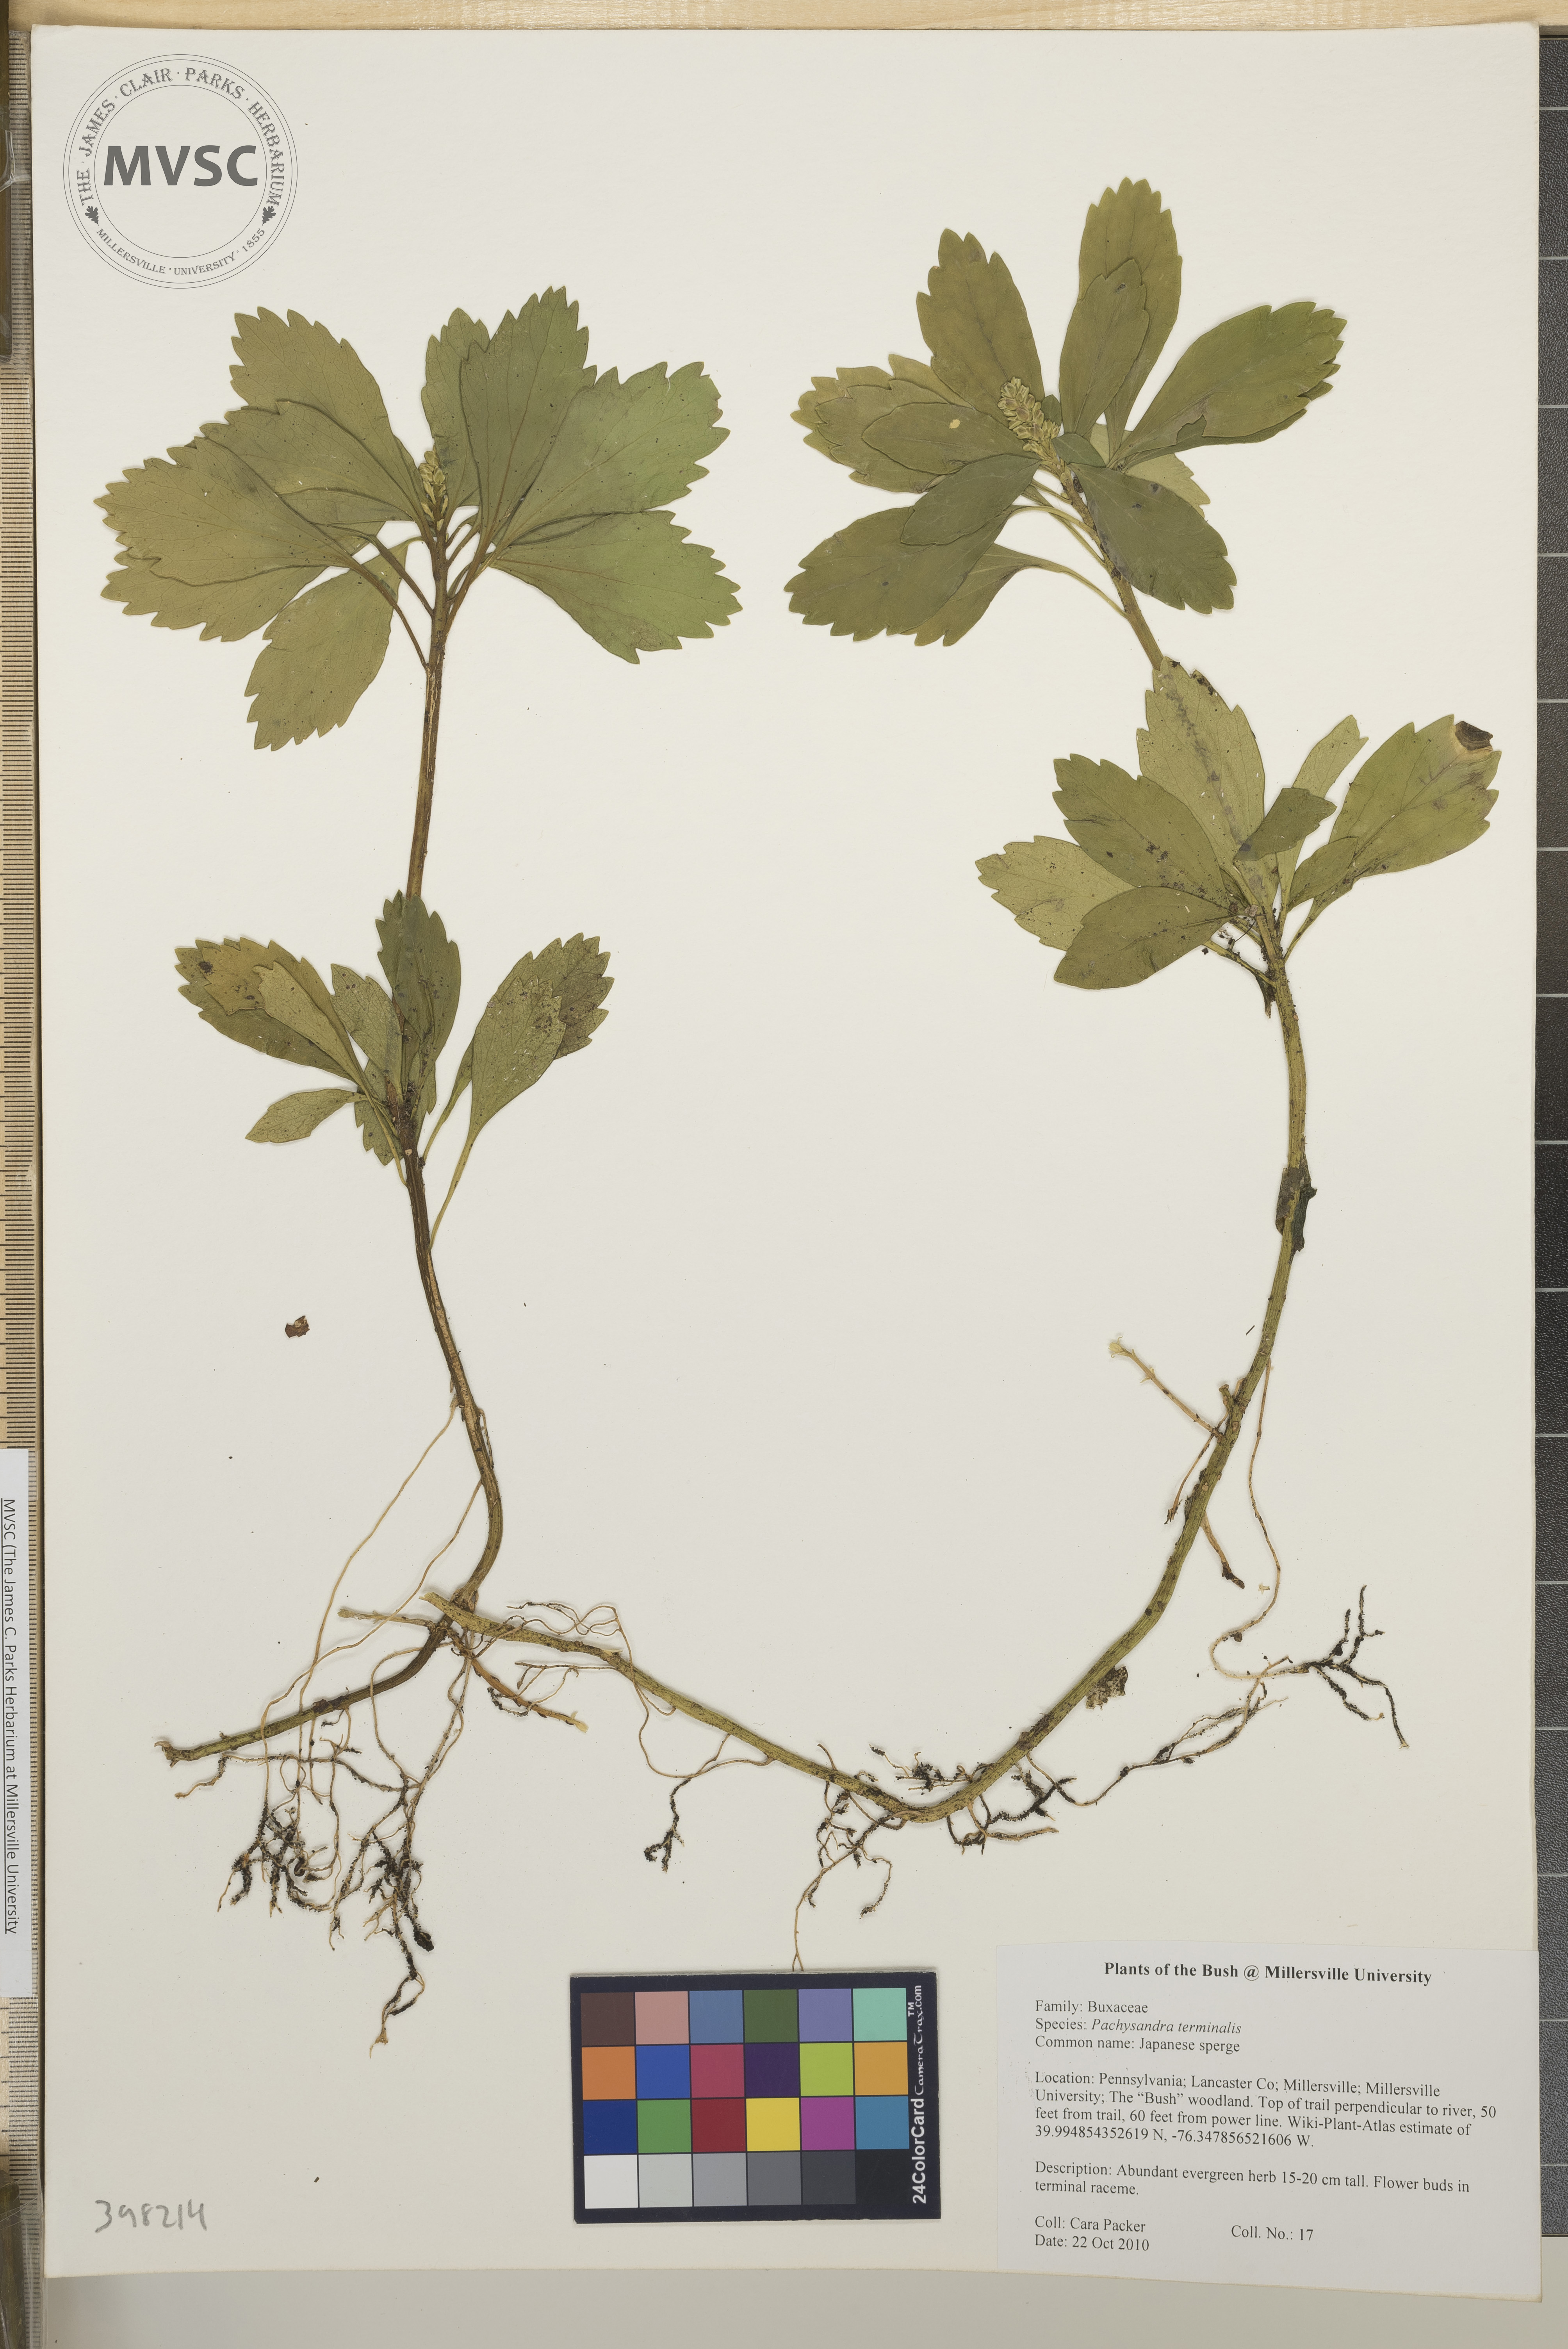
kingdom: Plantae
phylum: Tracheophyta
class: Magnoliopsida
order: Buxales
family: Buxaceae
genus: Pachysandra
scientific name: Pachysandra terminalis
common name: Japanese pachysandra
